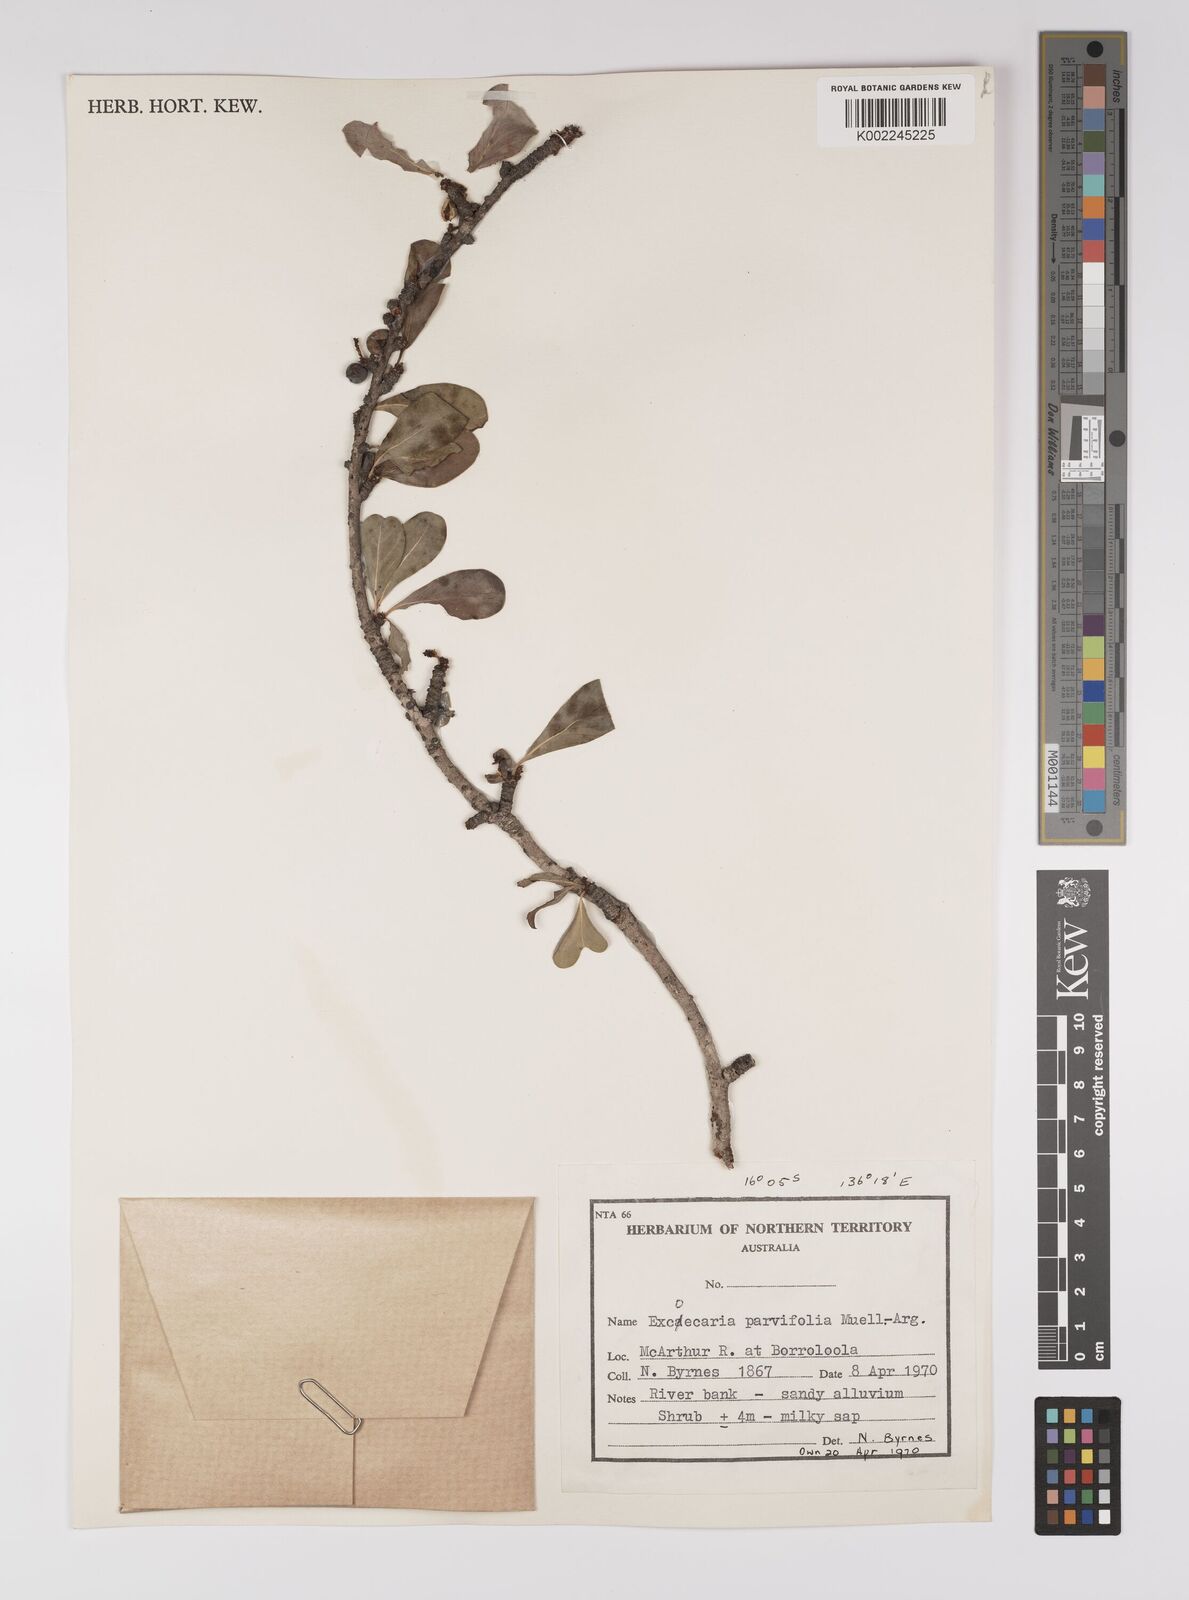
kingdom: Plantae
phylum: Tracheophyta
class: Magnoliopsida
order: Malpighiales
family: Euphorbiaceae
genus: Excoecaria
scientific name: Excoecaria parvifolia
